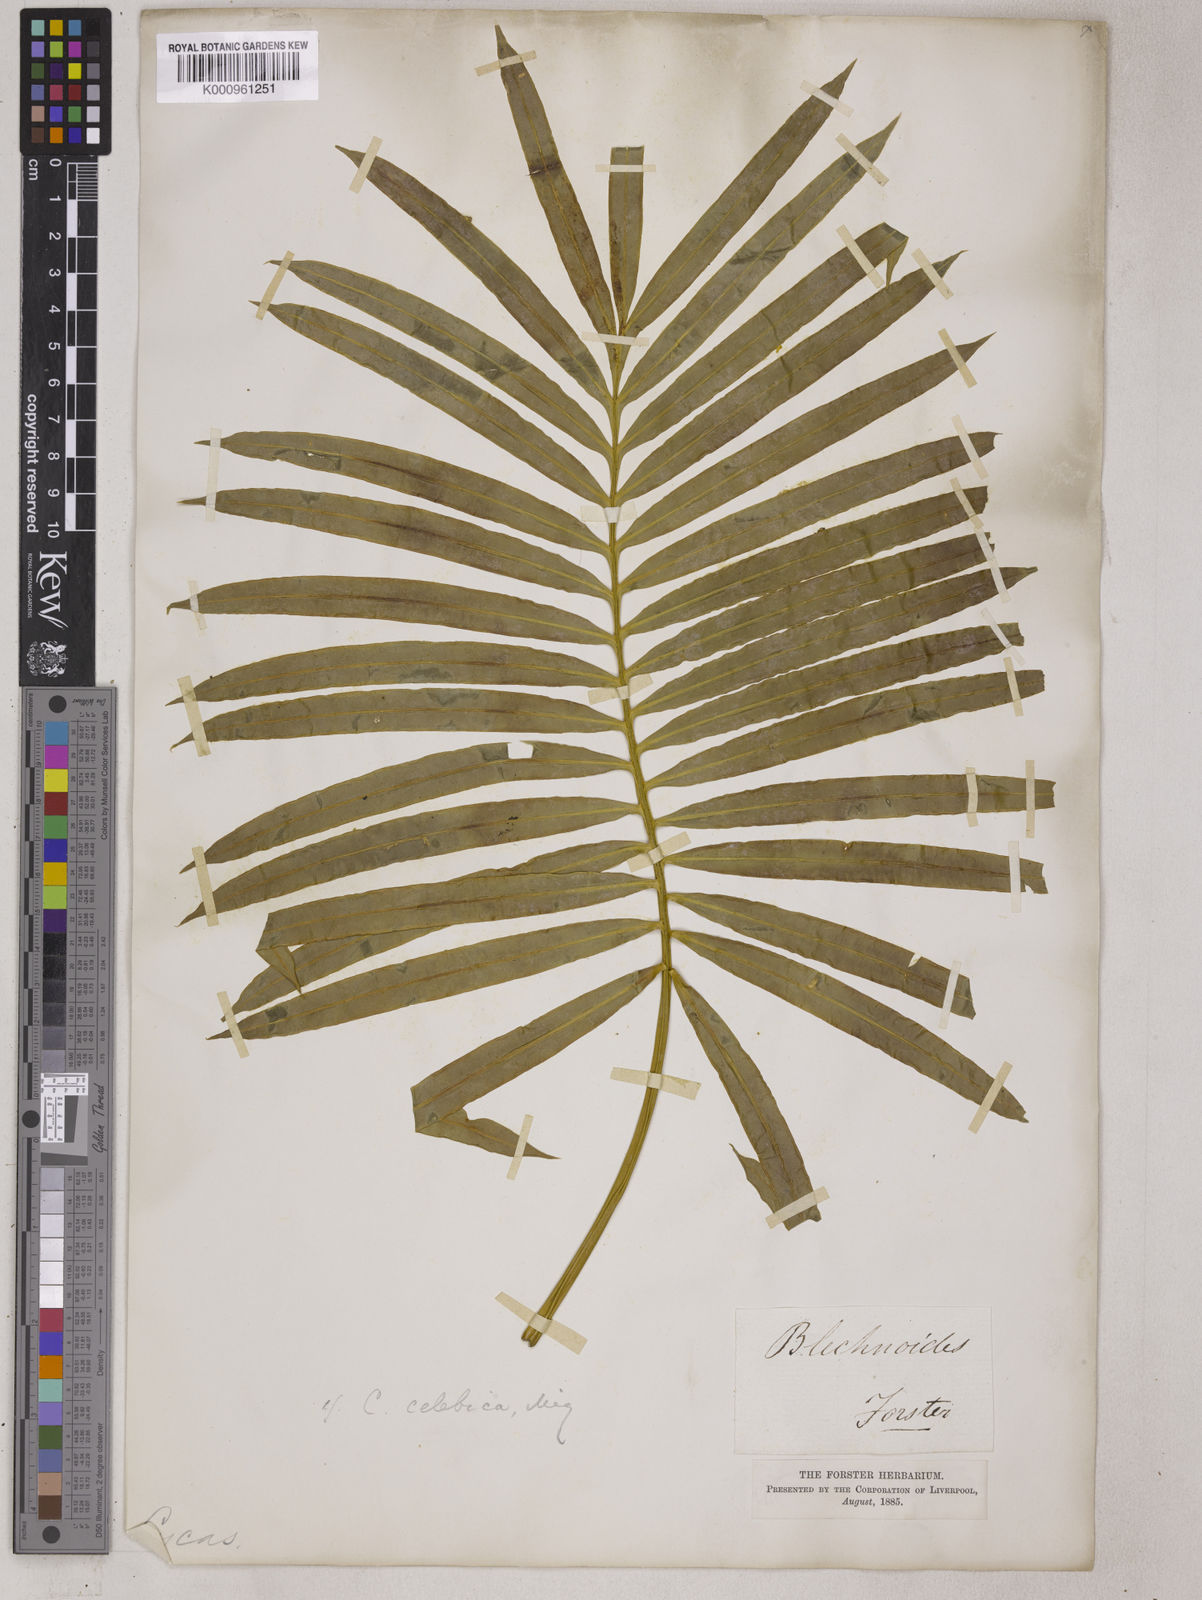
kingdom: Plantae
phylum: Tracheophyta
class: Cycadopsida
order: Cycadales
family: Cycadaceae
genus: Cycas
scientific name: Cycas rumphii
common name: Queen sago
